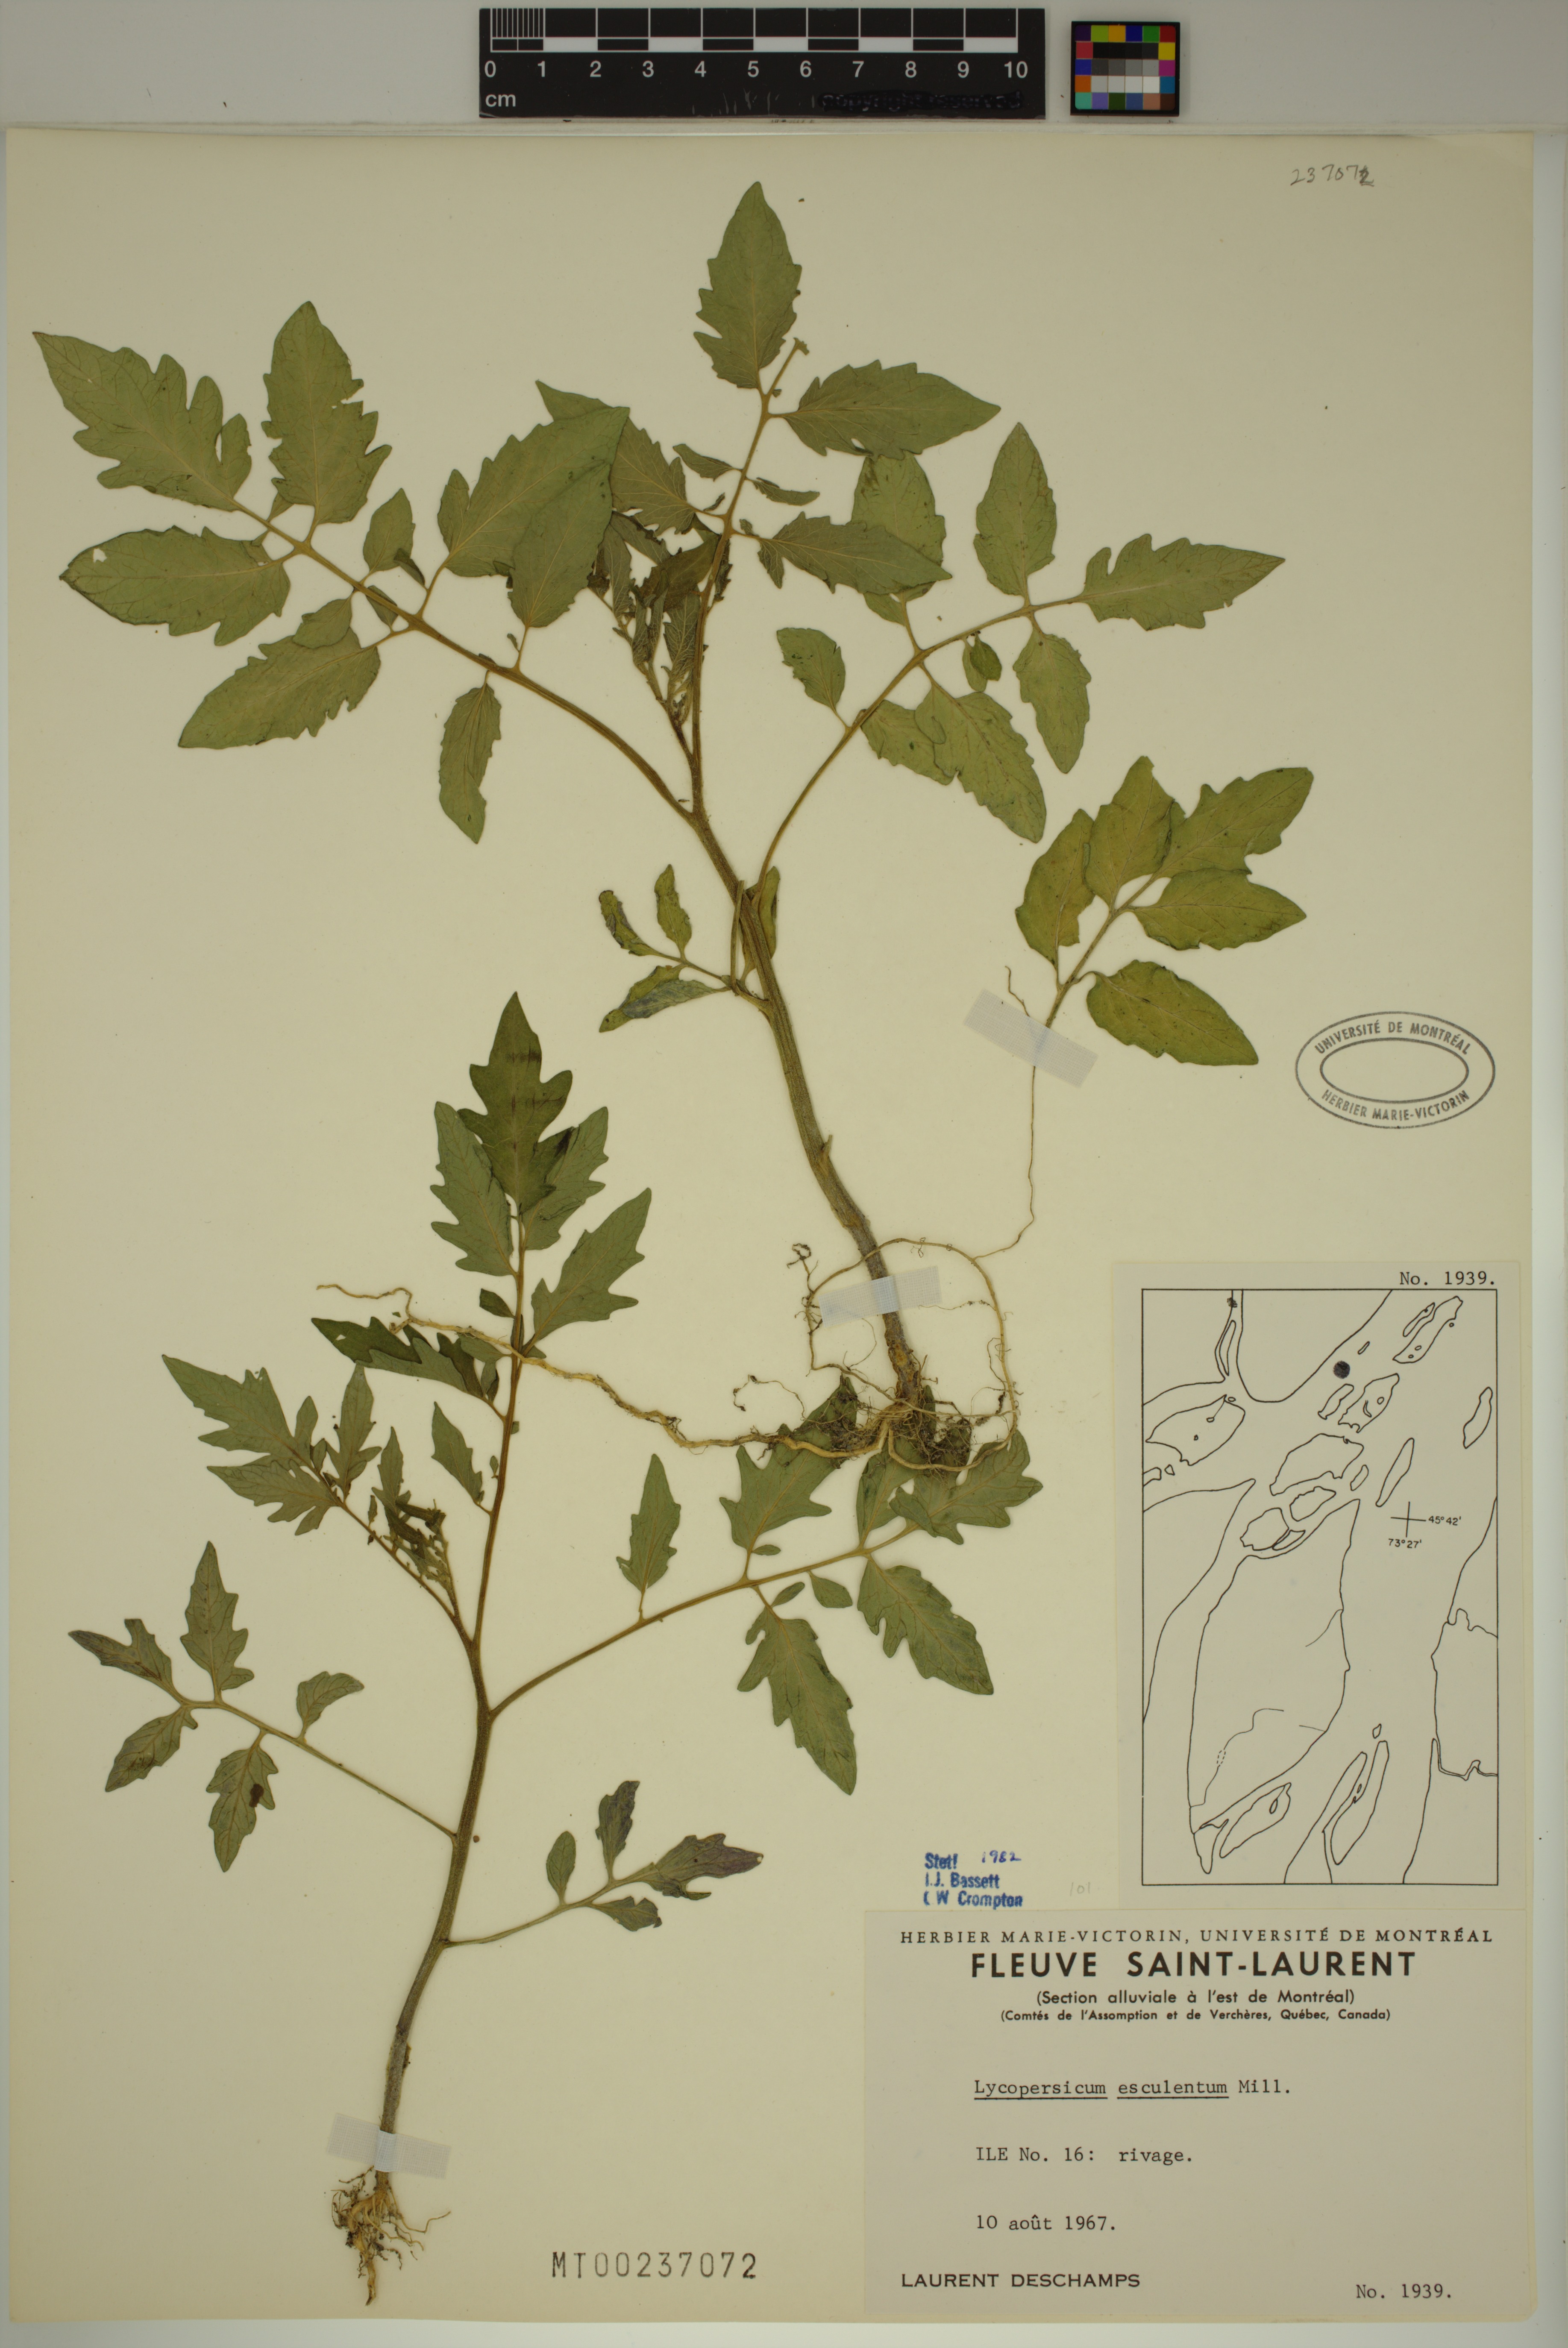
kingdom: Plantae
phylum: Tracheophyta
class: Magnoliopsida
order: Solanales
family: Solanaceae
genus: Solanum
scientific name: Solanum lycopersicum
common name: Garden tomato
